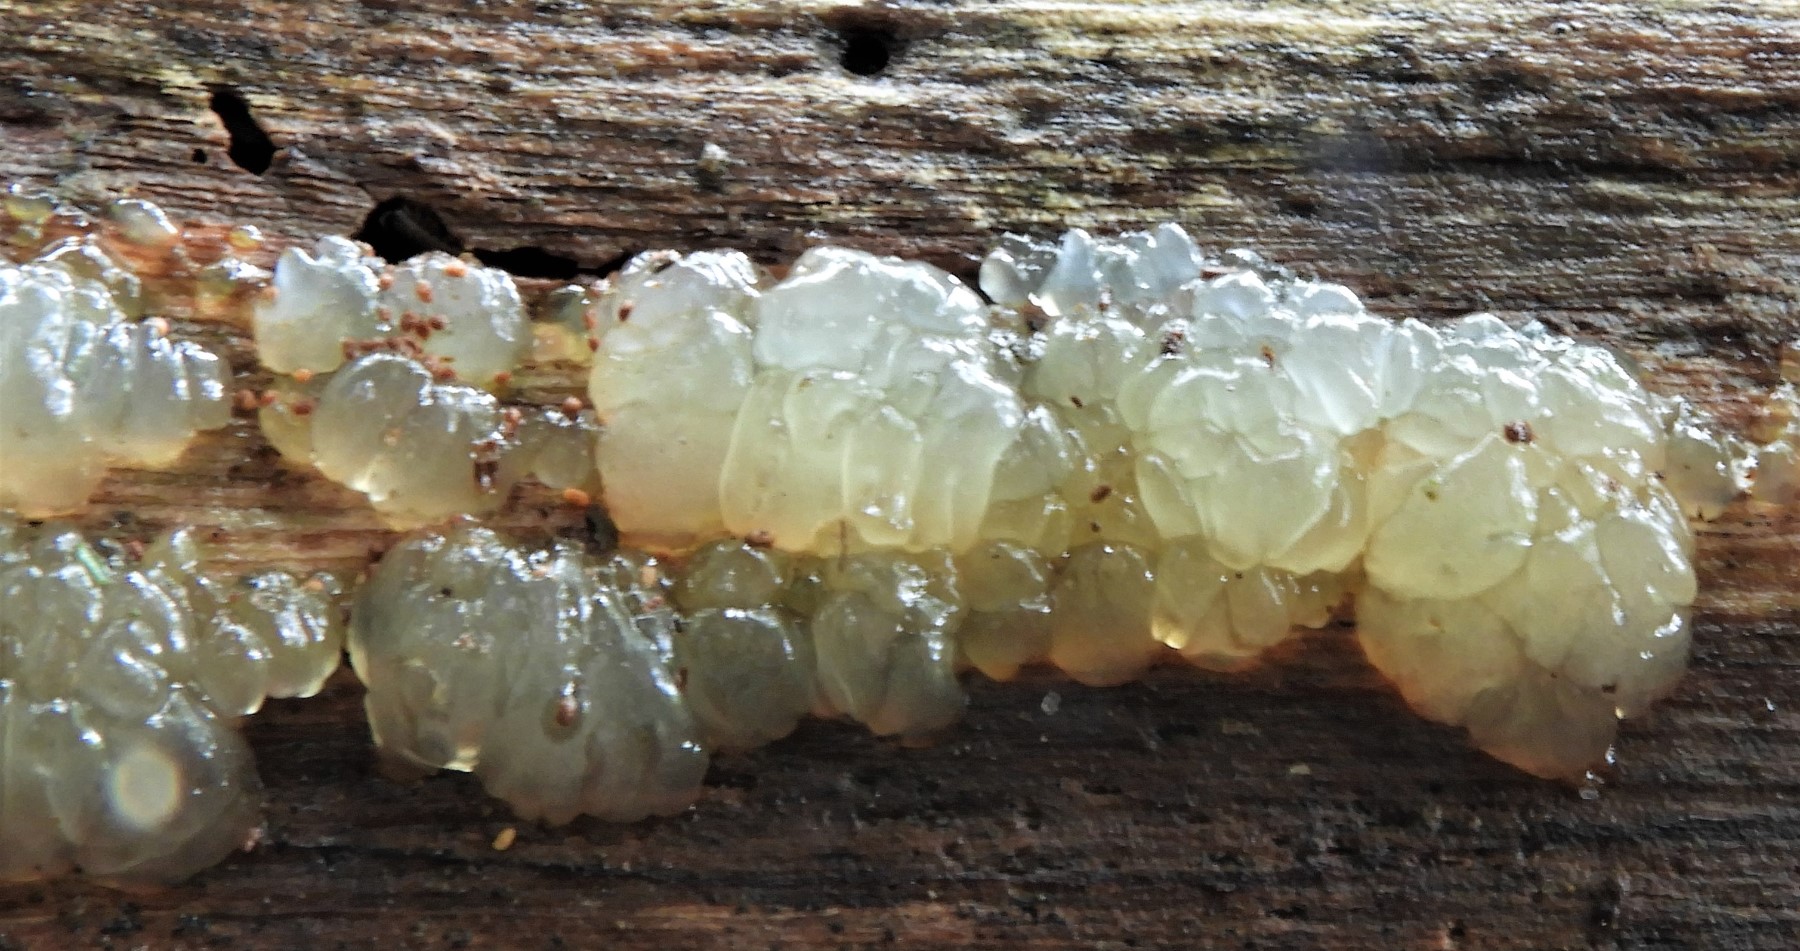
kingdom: Fungi
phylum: Basidiomycota
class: Agaricomycetes
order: Auriculariales
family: Hyaloriaceae
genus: Myxarium
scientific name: Myxarium nucleatum
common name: klar bævretop
